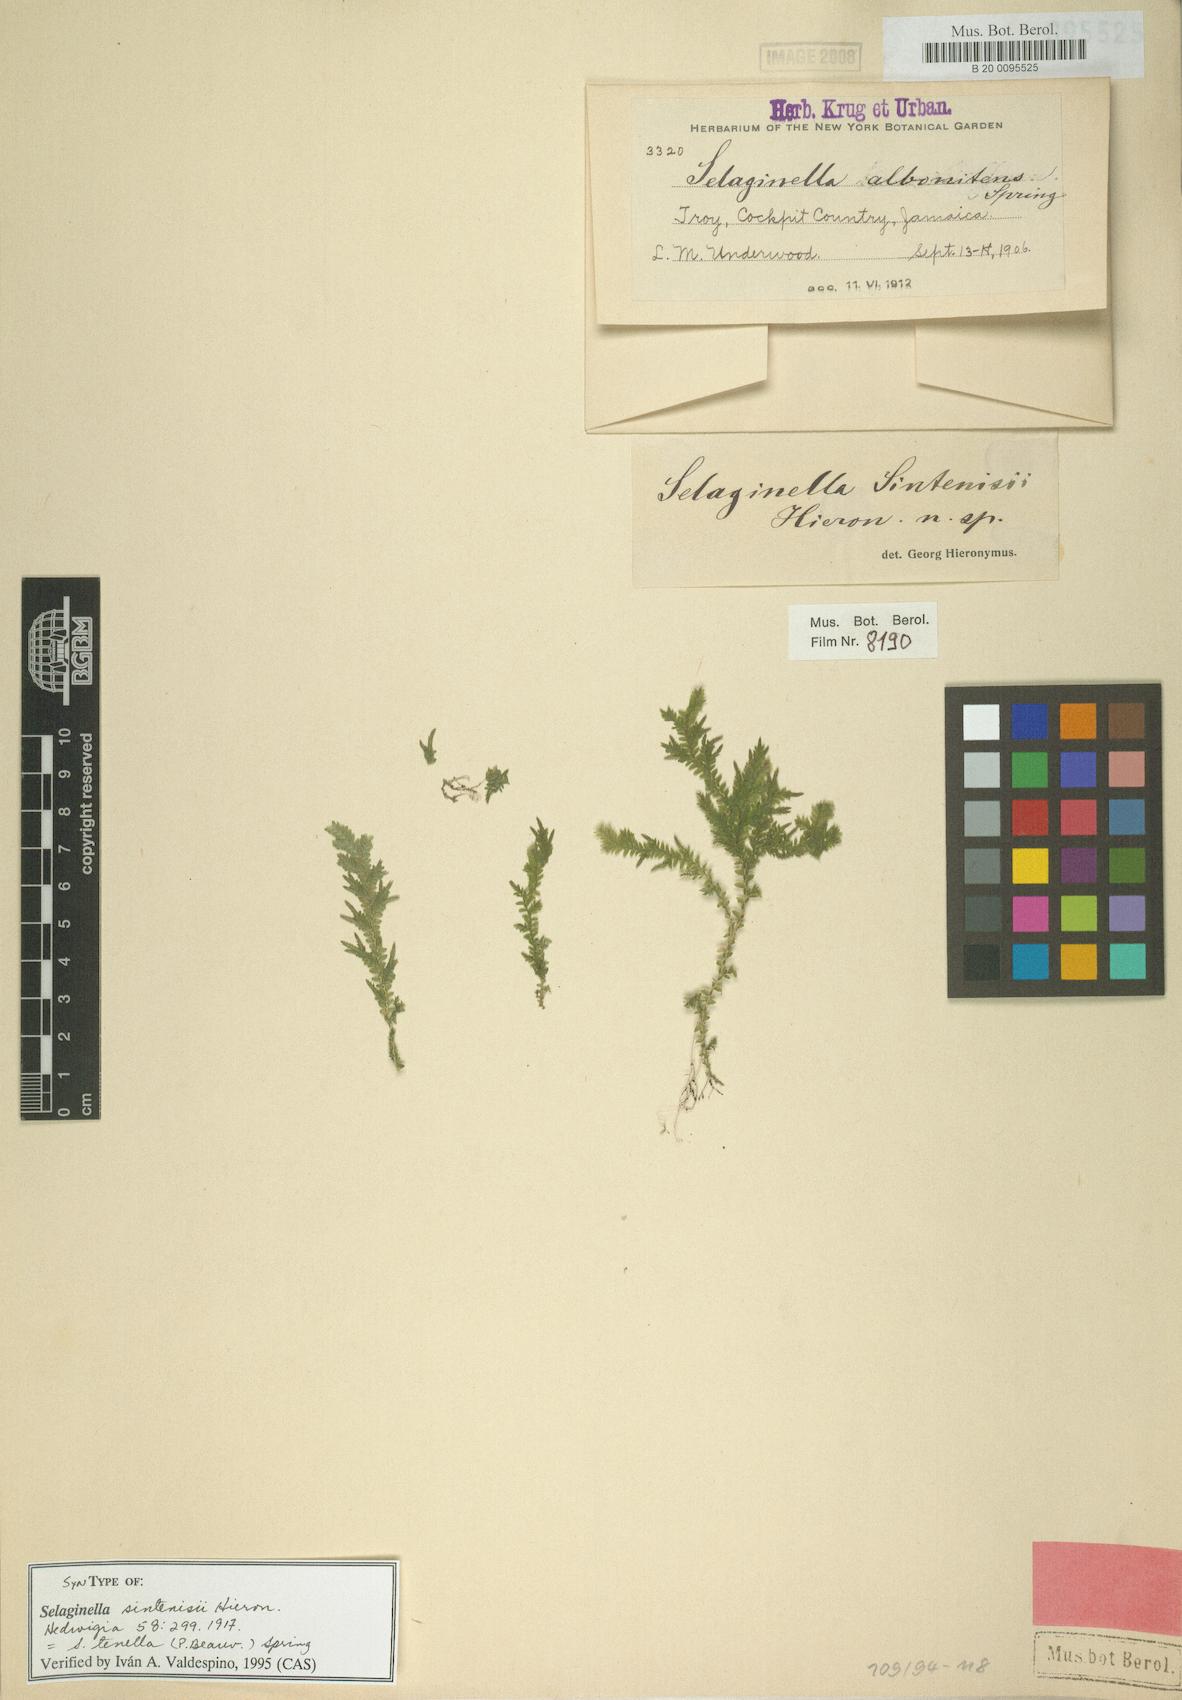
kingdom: Plantae
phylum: Tracheophyta
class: Lycopodiopsida
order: Selaginellales
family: Selaginellaceae
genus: Selaginella
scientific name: Selaginella tenella
